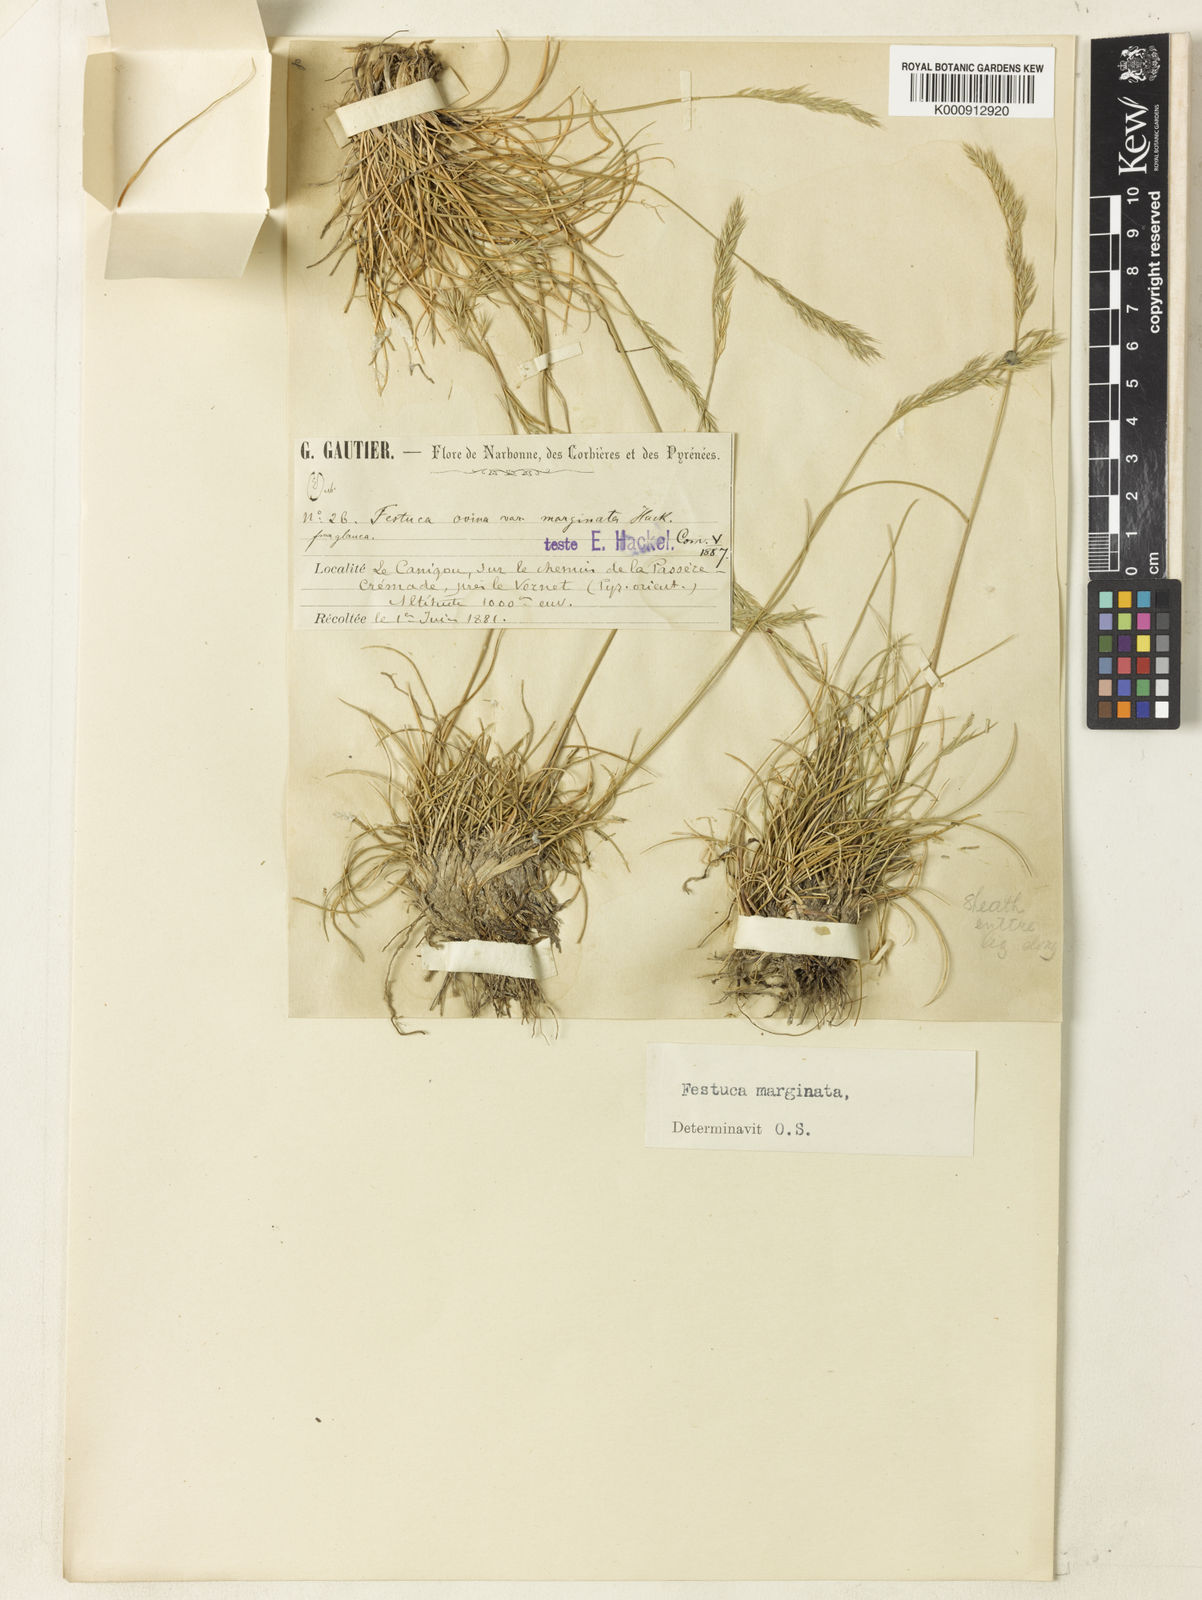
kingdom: Plantae
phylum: Tracheophyta
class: Liliopsida
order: Poales
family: Poaceae
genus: Festuca
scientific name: Festuca marginata
